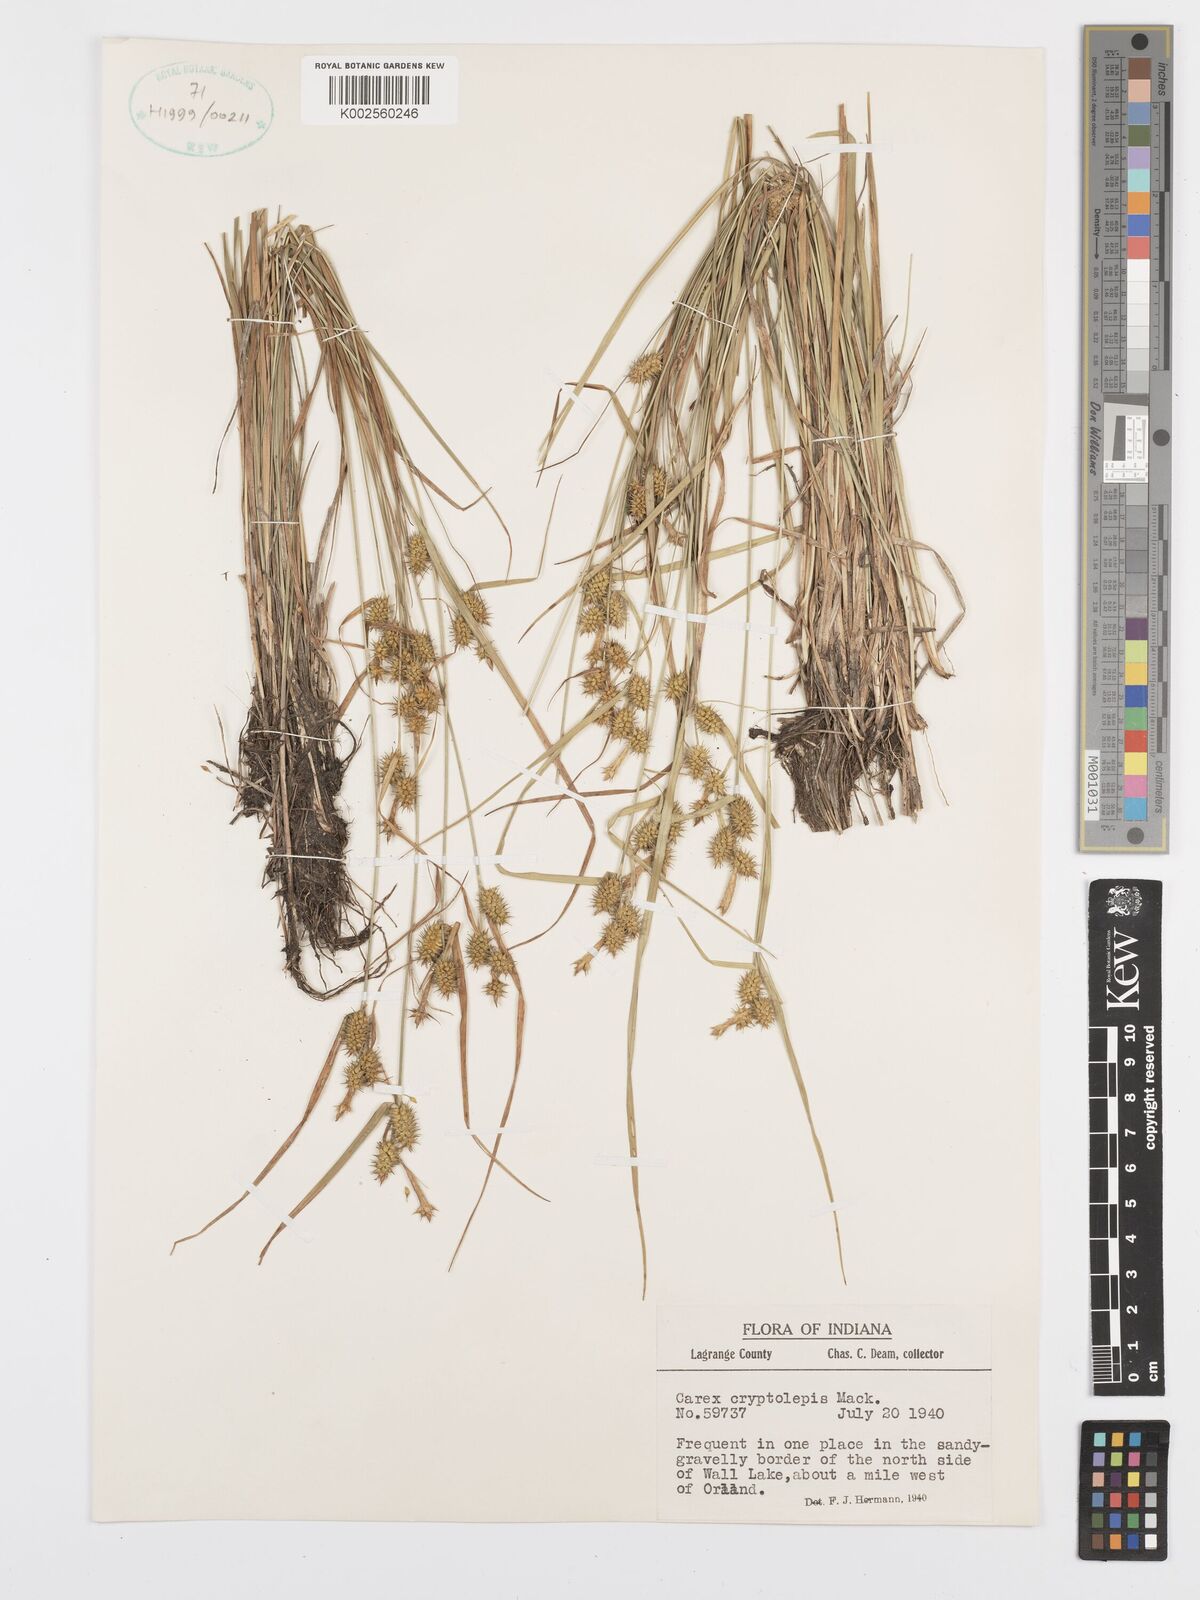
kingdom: Plantae
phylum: Tracheophyta
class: Liliopsida
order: Poales
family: Cyperaceae
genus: Carex
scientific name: Carex cryptolepis
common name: Northeastern sedge
